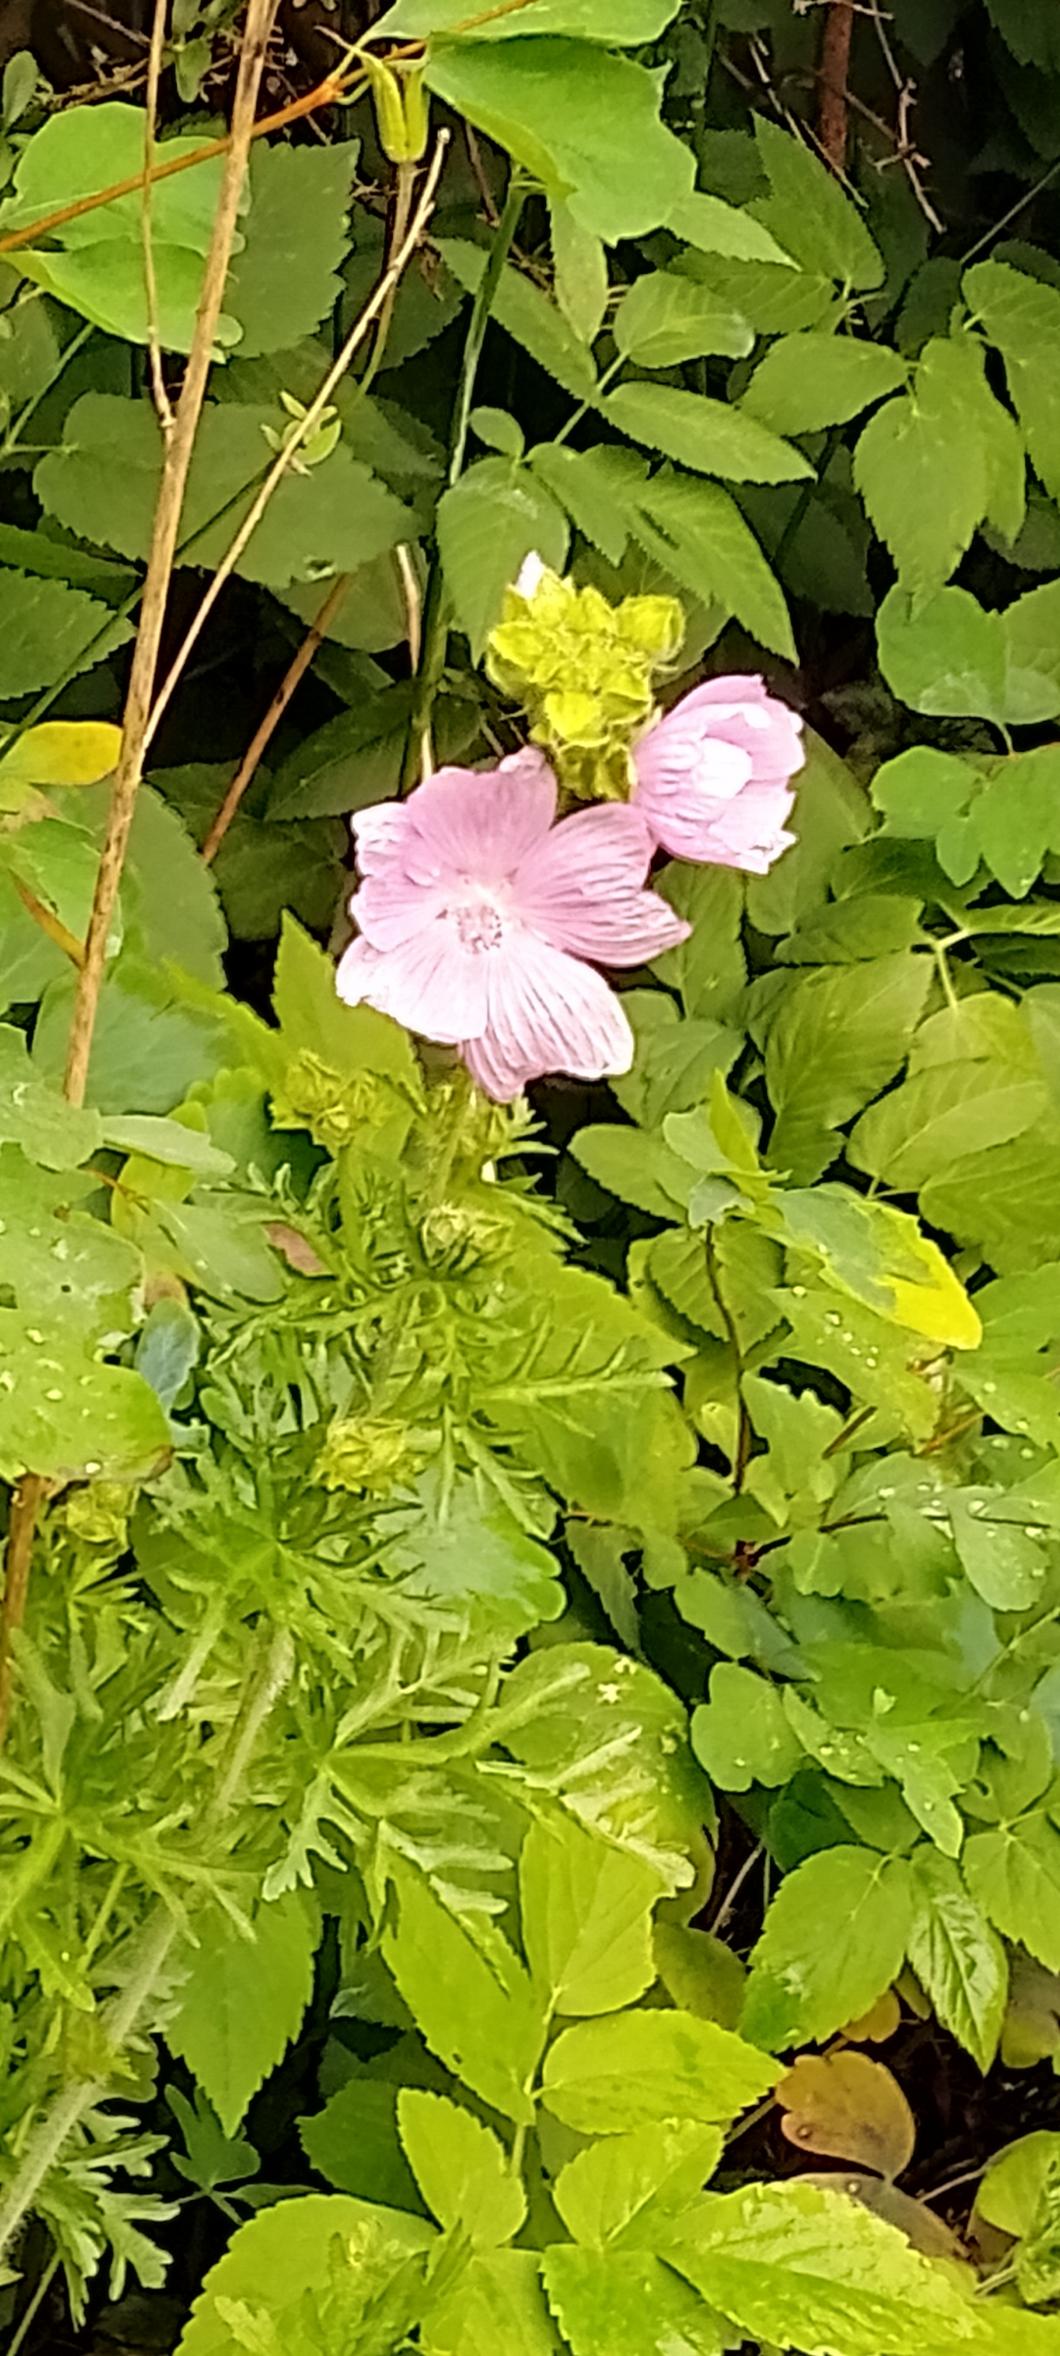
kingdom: Plantae
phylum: Tracheophyta
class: Magnoliopsida
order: Malvales
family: Malvaceae
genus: Malva
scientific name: Malva moschata
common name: Moskus-katost
